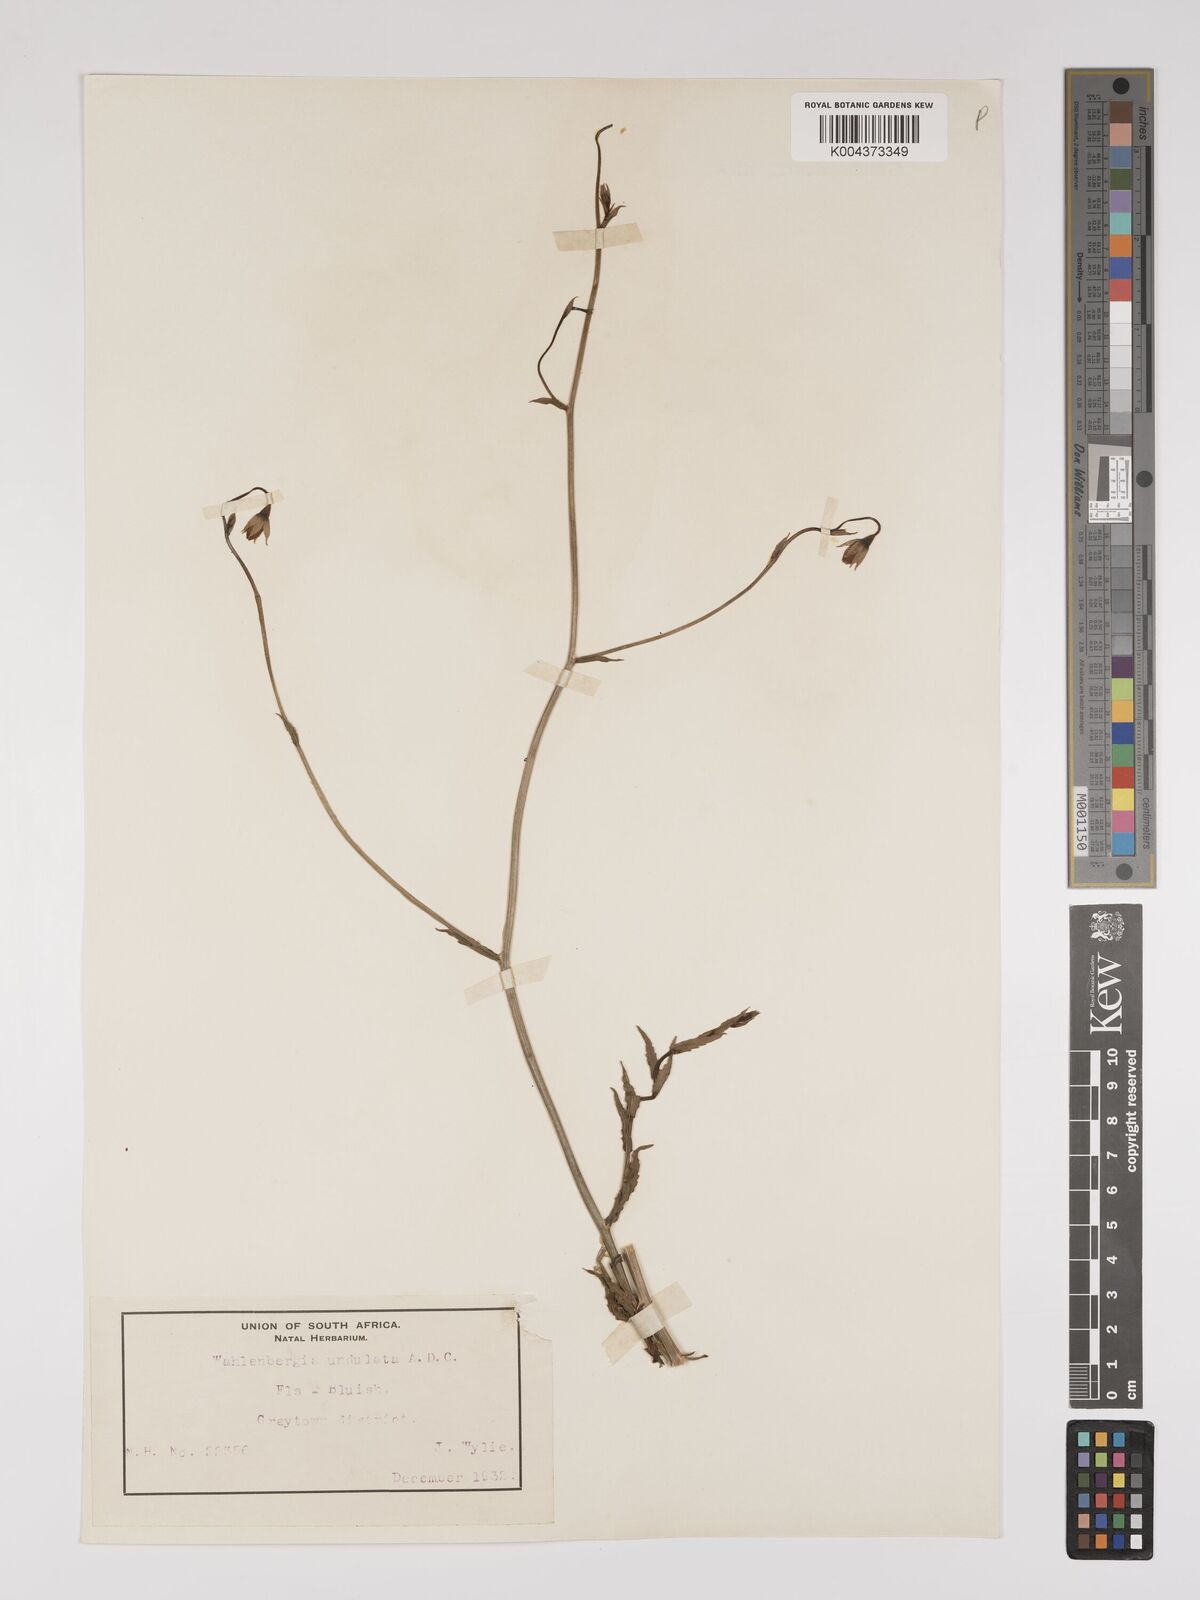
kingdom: Plantae
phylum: Tracheophyta
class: Magnoliopsida
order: Asterales
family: Campanulaceae
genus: Wahlenbergia
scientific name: Wahlenbergia undulata
